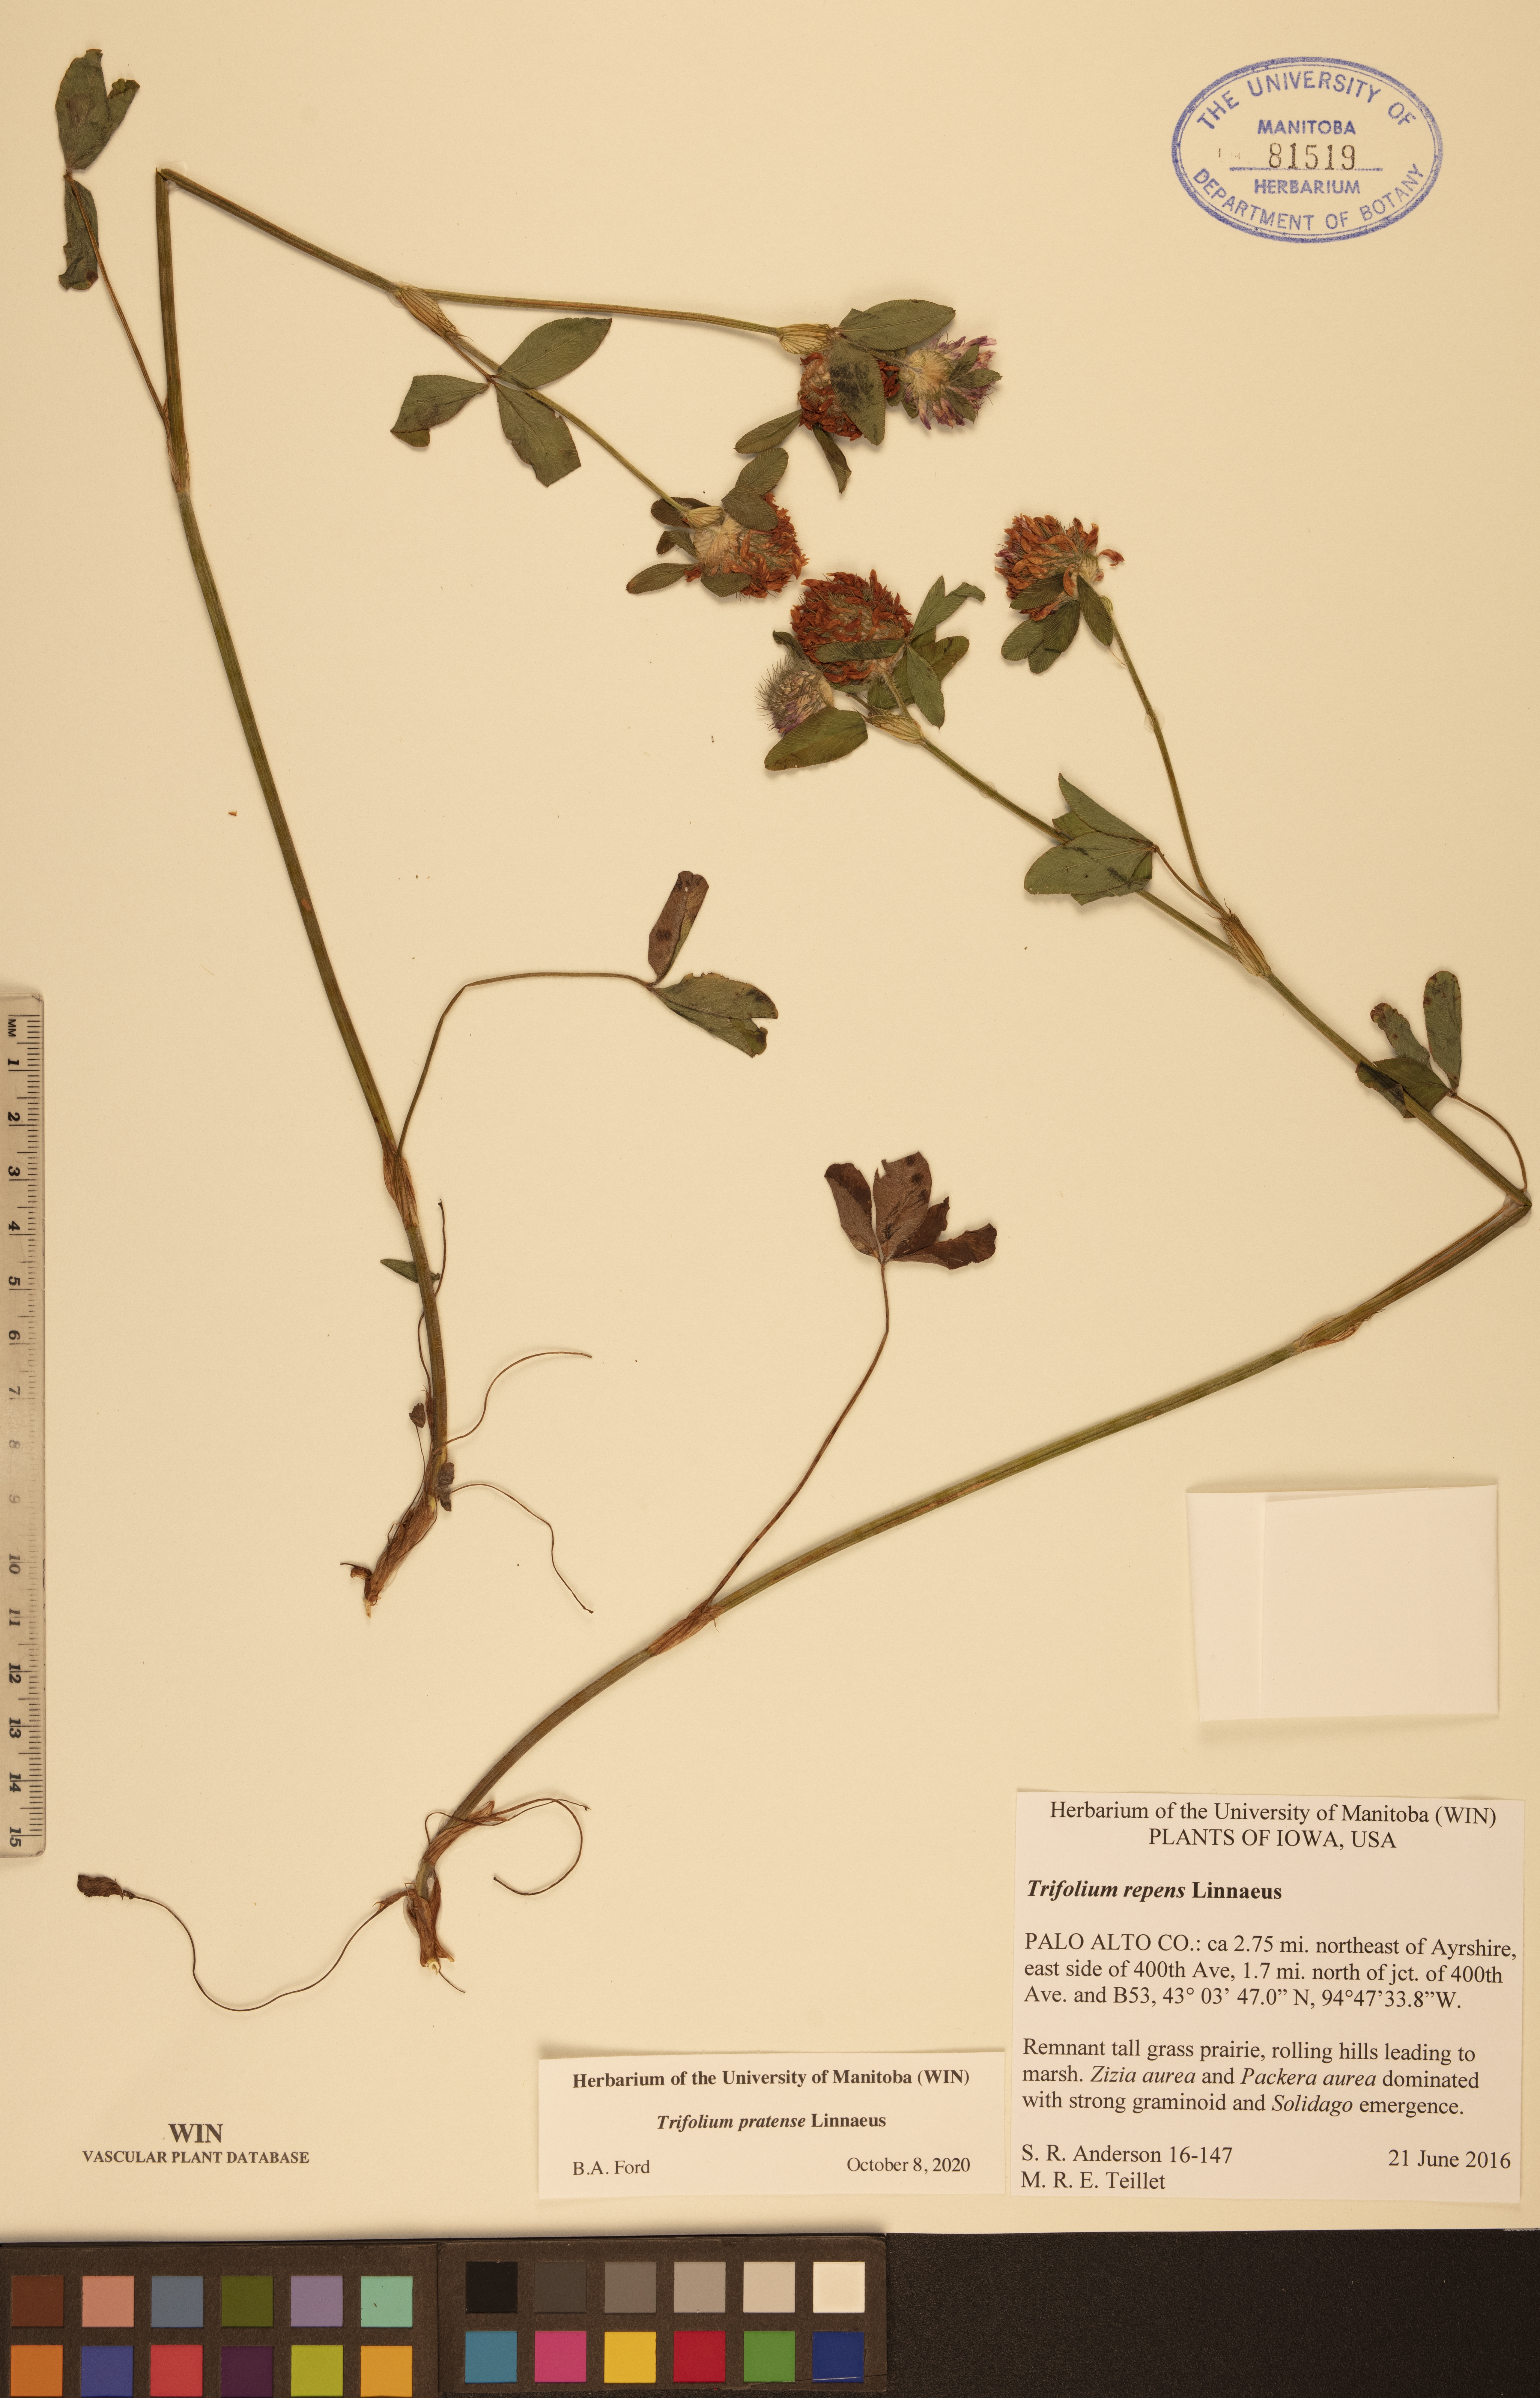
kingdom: Plantae
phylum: Tracheophyta
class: Magnoliopsida
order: Fabales
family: Fabaceae
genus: Trifolium
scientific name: Trifolium pratense
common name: Red clover
